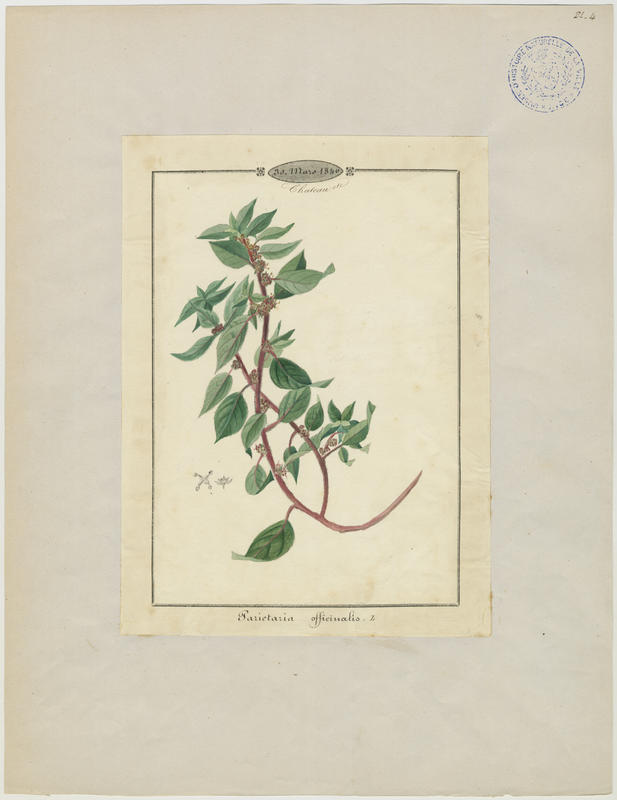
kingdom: Plantae
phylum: Tracheophyta
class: Magnoliopsida
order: Rosales
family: Urticaceae
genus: Parietaria
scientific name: Parietaria judaica
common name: Pellitory-of-the-wall
